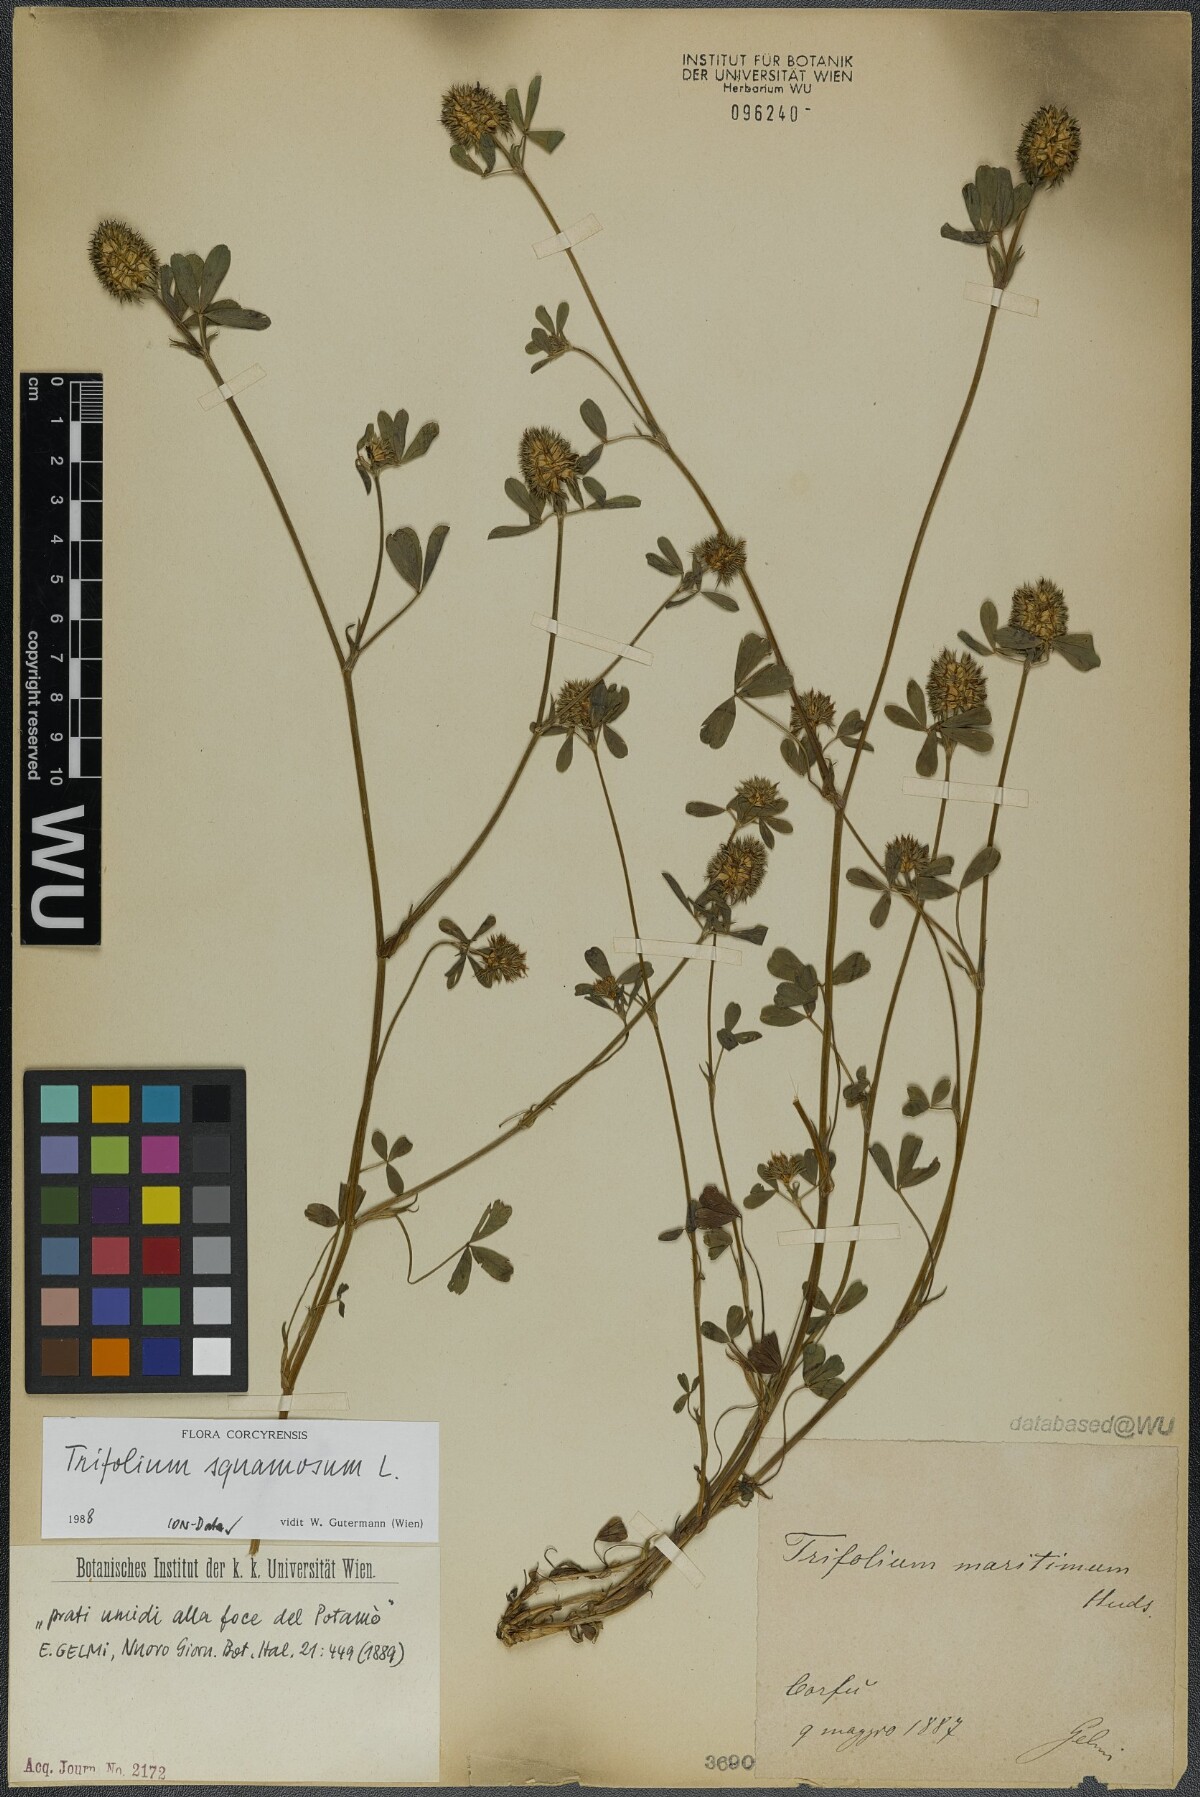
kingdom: Plantae
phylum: Tracheophyta
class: Magnoliopsida
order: Fabales
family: Fabaceae
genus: Trifolium
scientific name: Trifolium squamosum
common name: Sea clover
